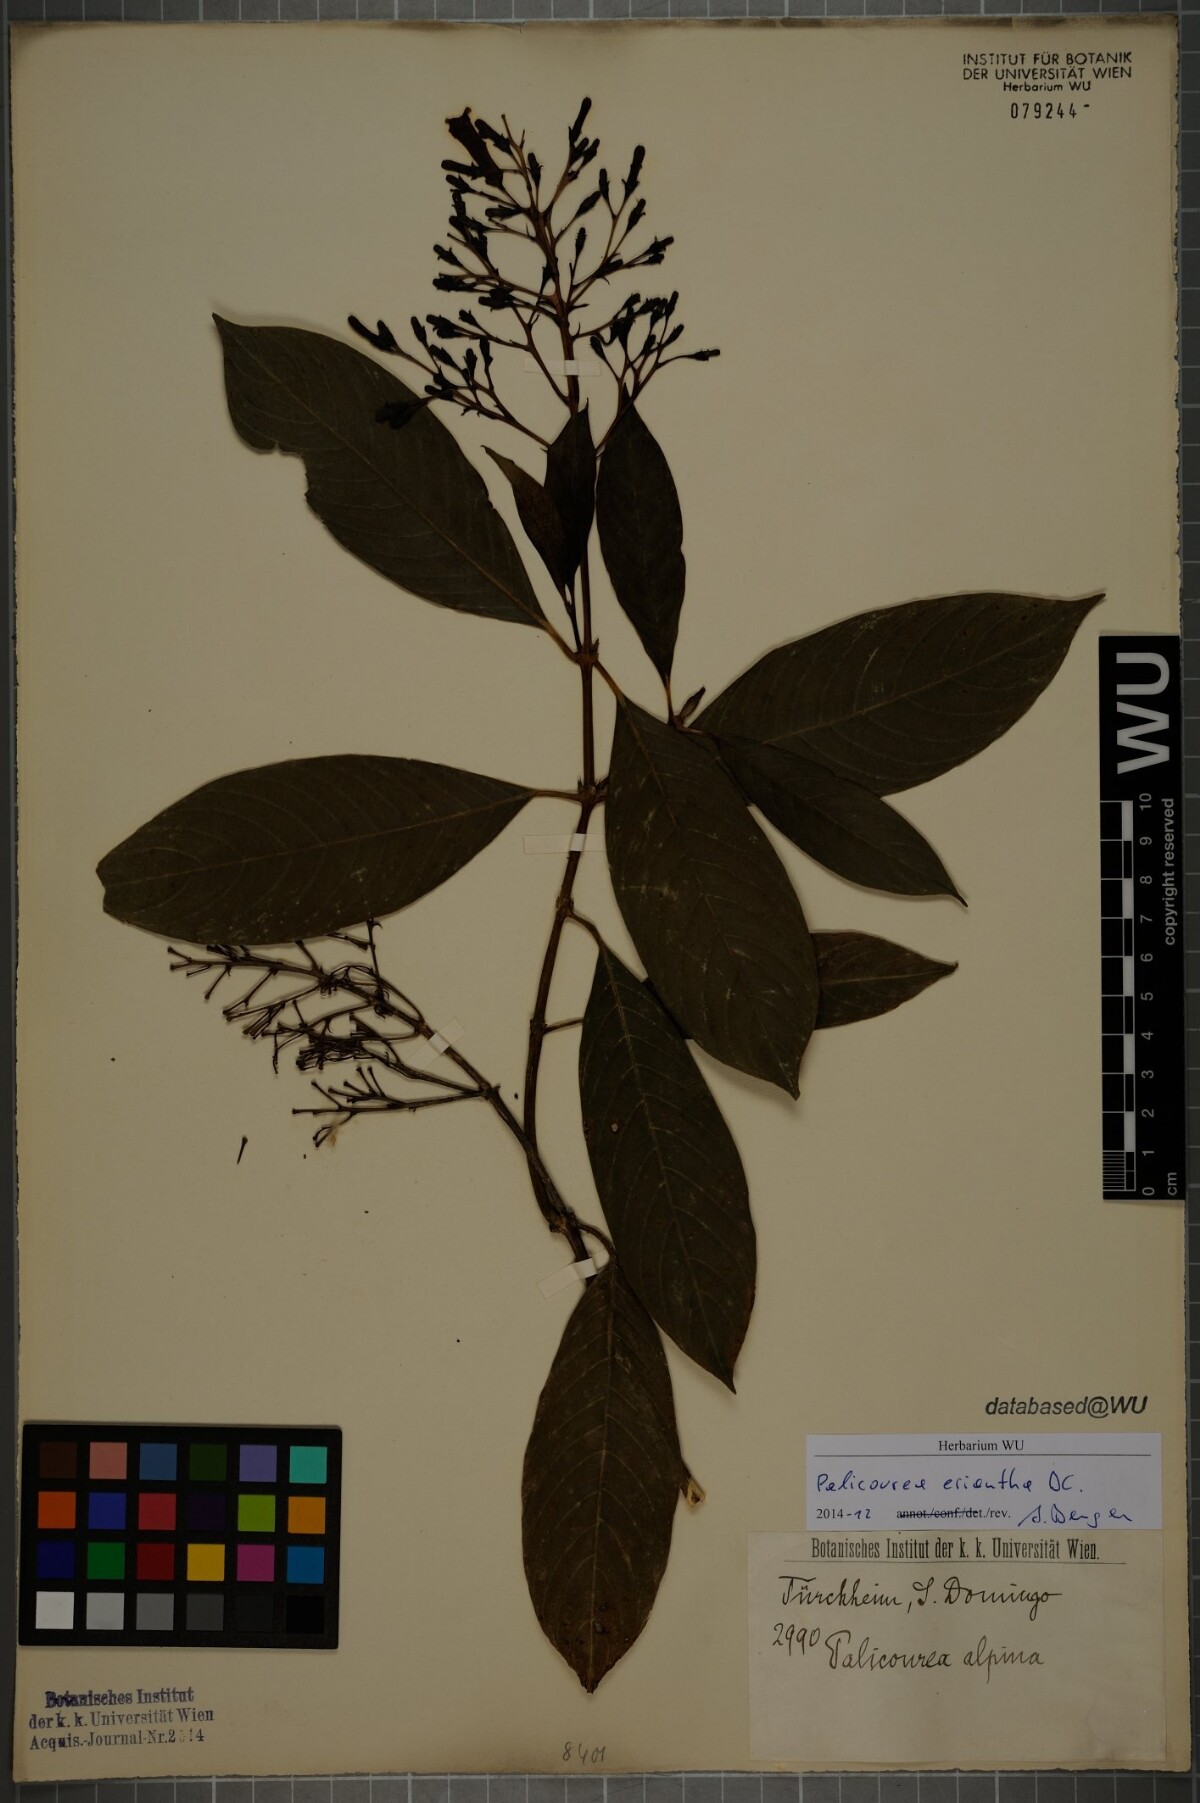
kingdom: Plantae
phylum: Tracheophyta
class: Magnoliopsida
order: Gentianales
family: Rubiaceae
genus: Palicourea
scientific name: Palicourea eriantha
